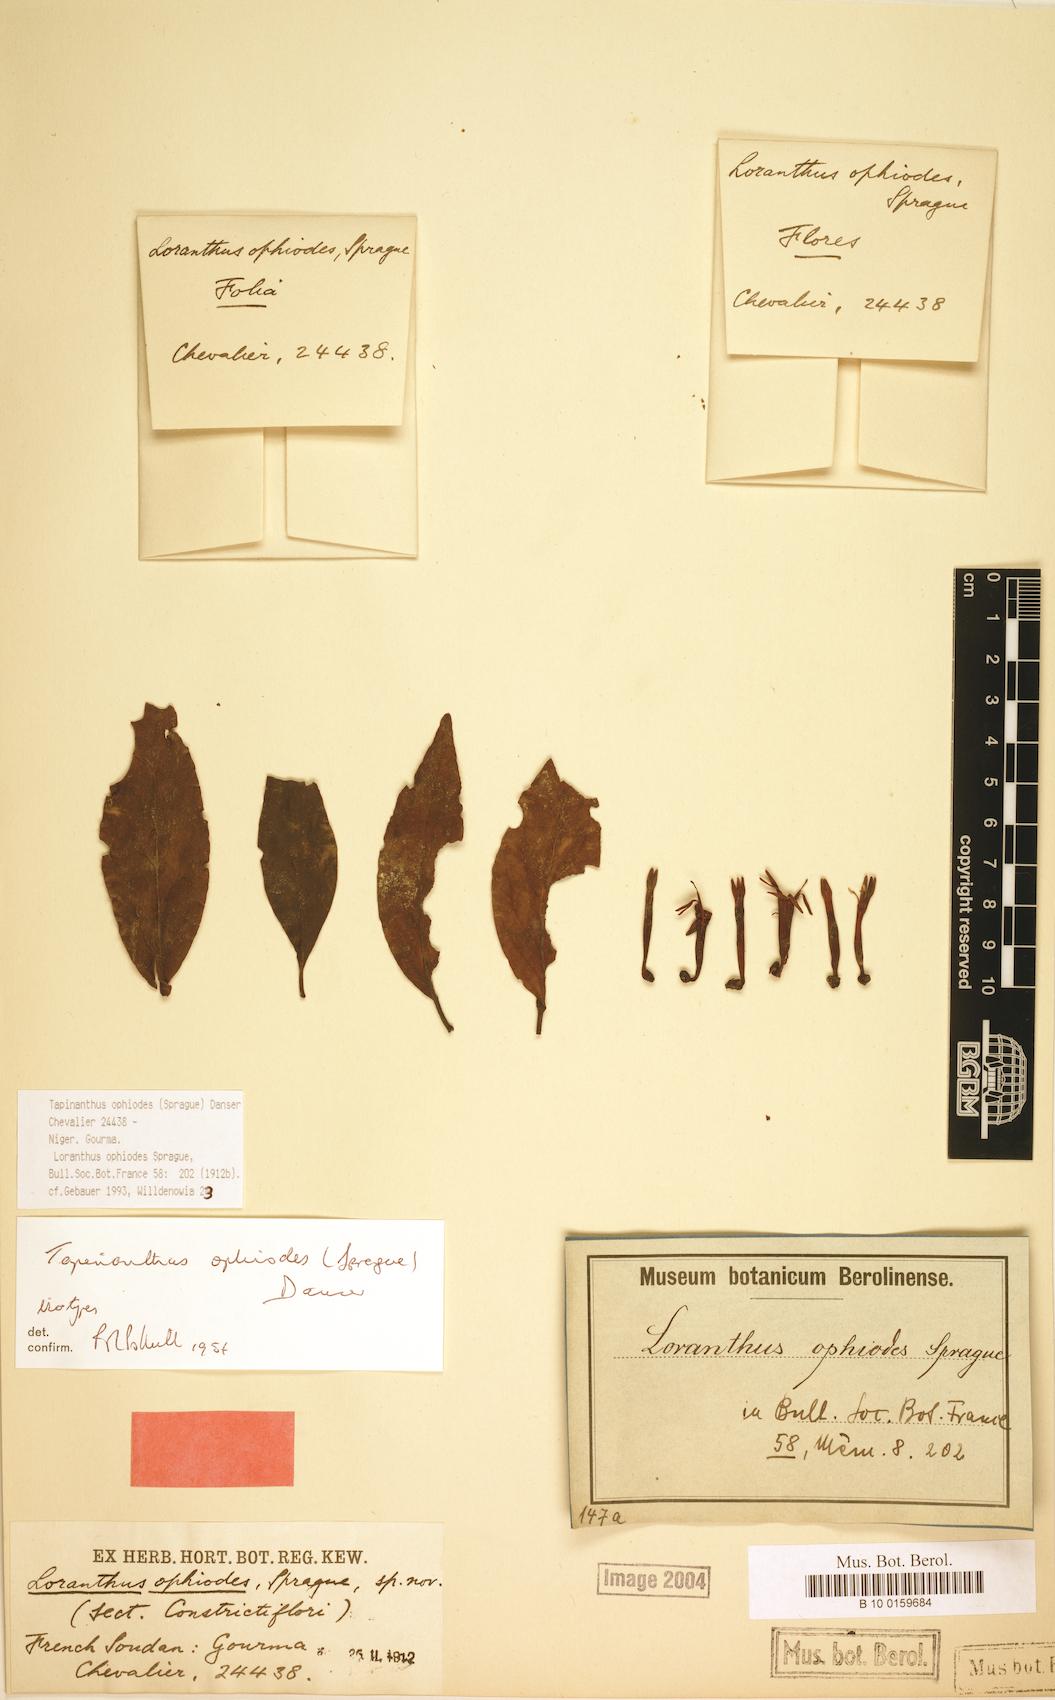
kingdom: Plantae
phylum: Tracheophyta
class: Magnoliopsida
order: Santalales
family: Loranthaceae
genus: Tapinanthus
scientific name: Tapinanthus ophiodes
